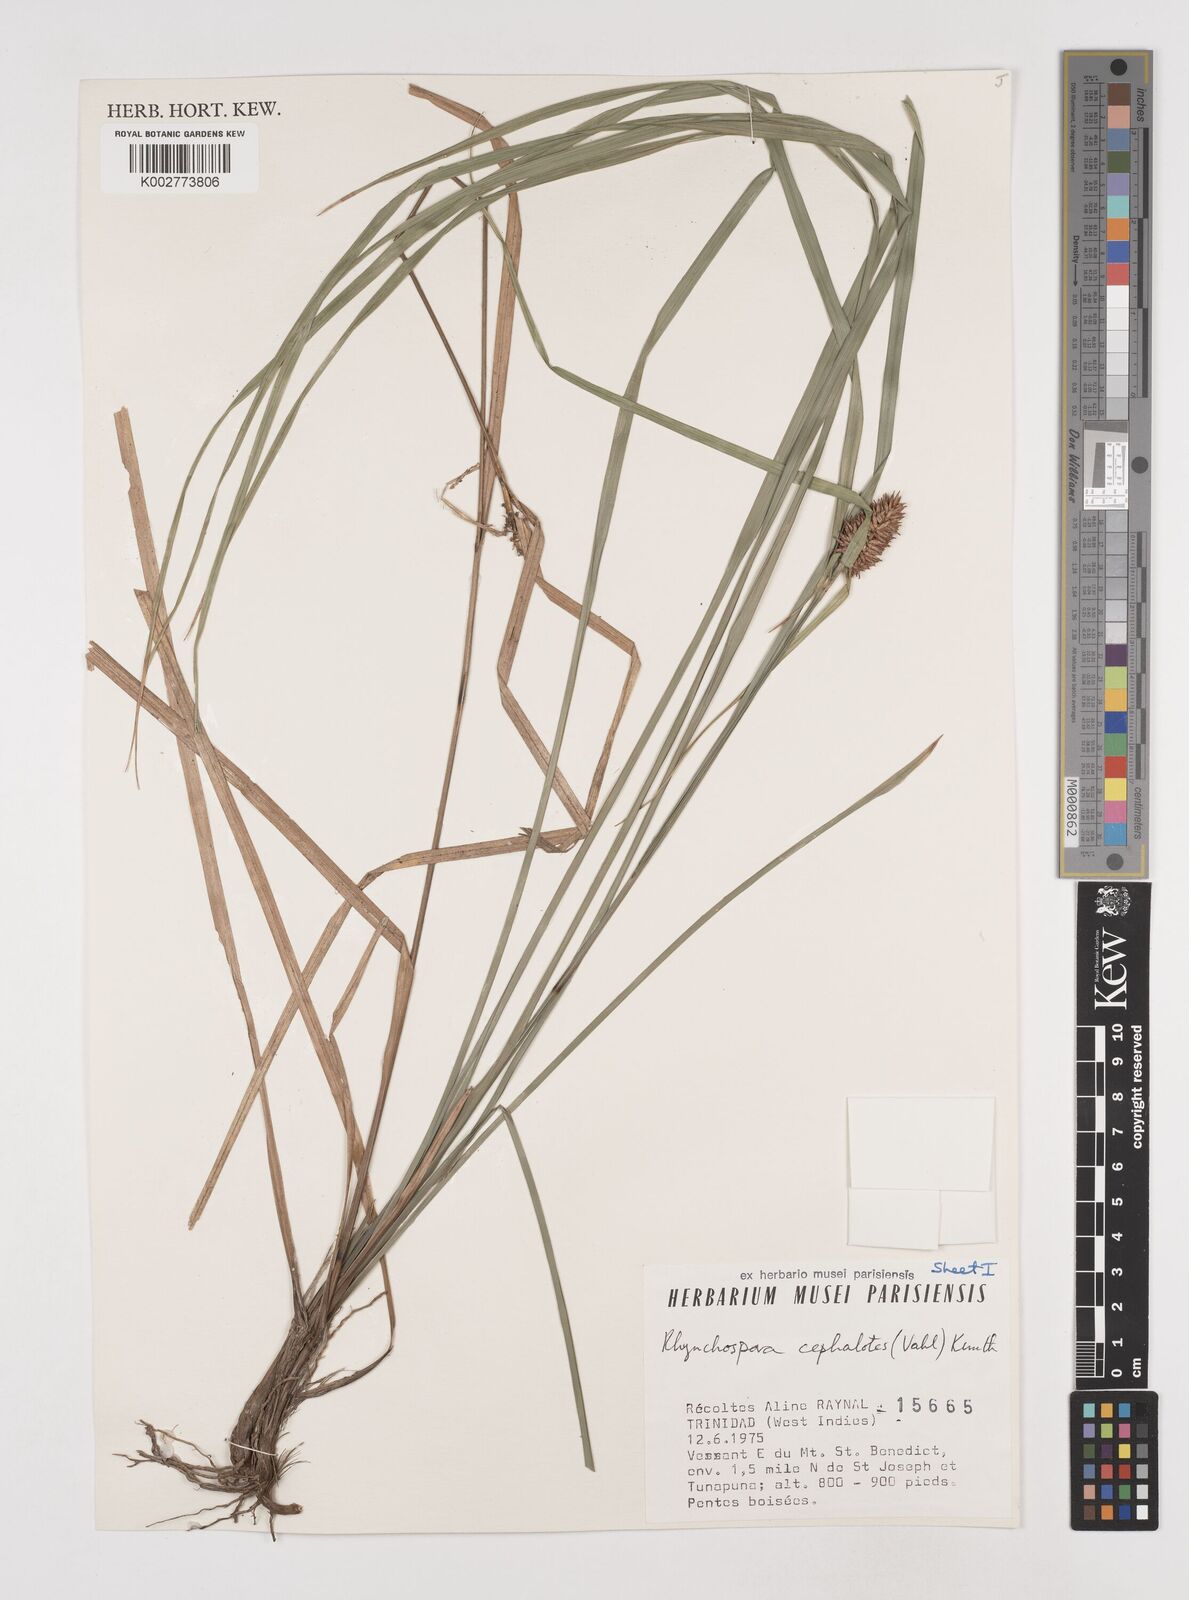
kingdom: Plantae
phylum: Tracheophyta
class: Liliopsida
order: Poales
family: Cyperaceae
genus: Rhynchospora
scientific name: Rhynchospora cephalotes
